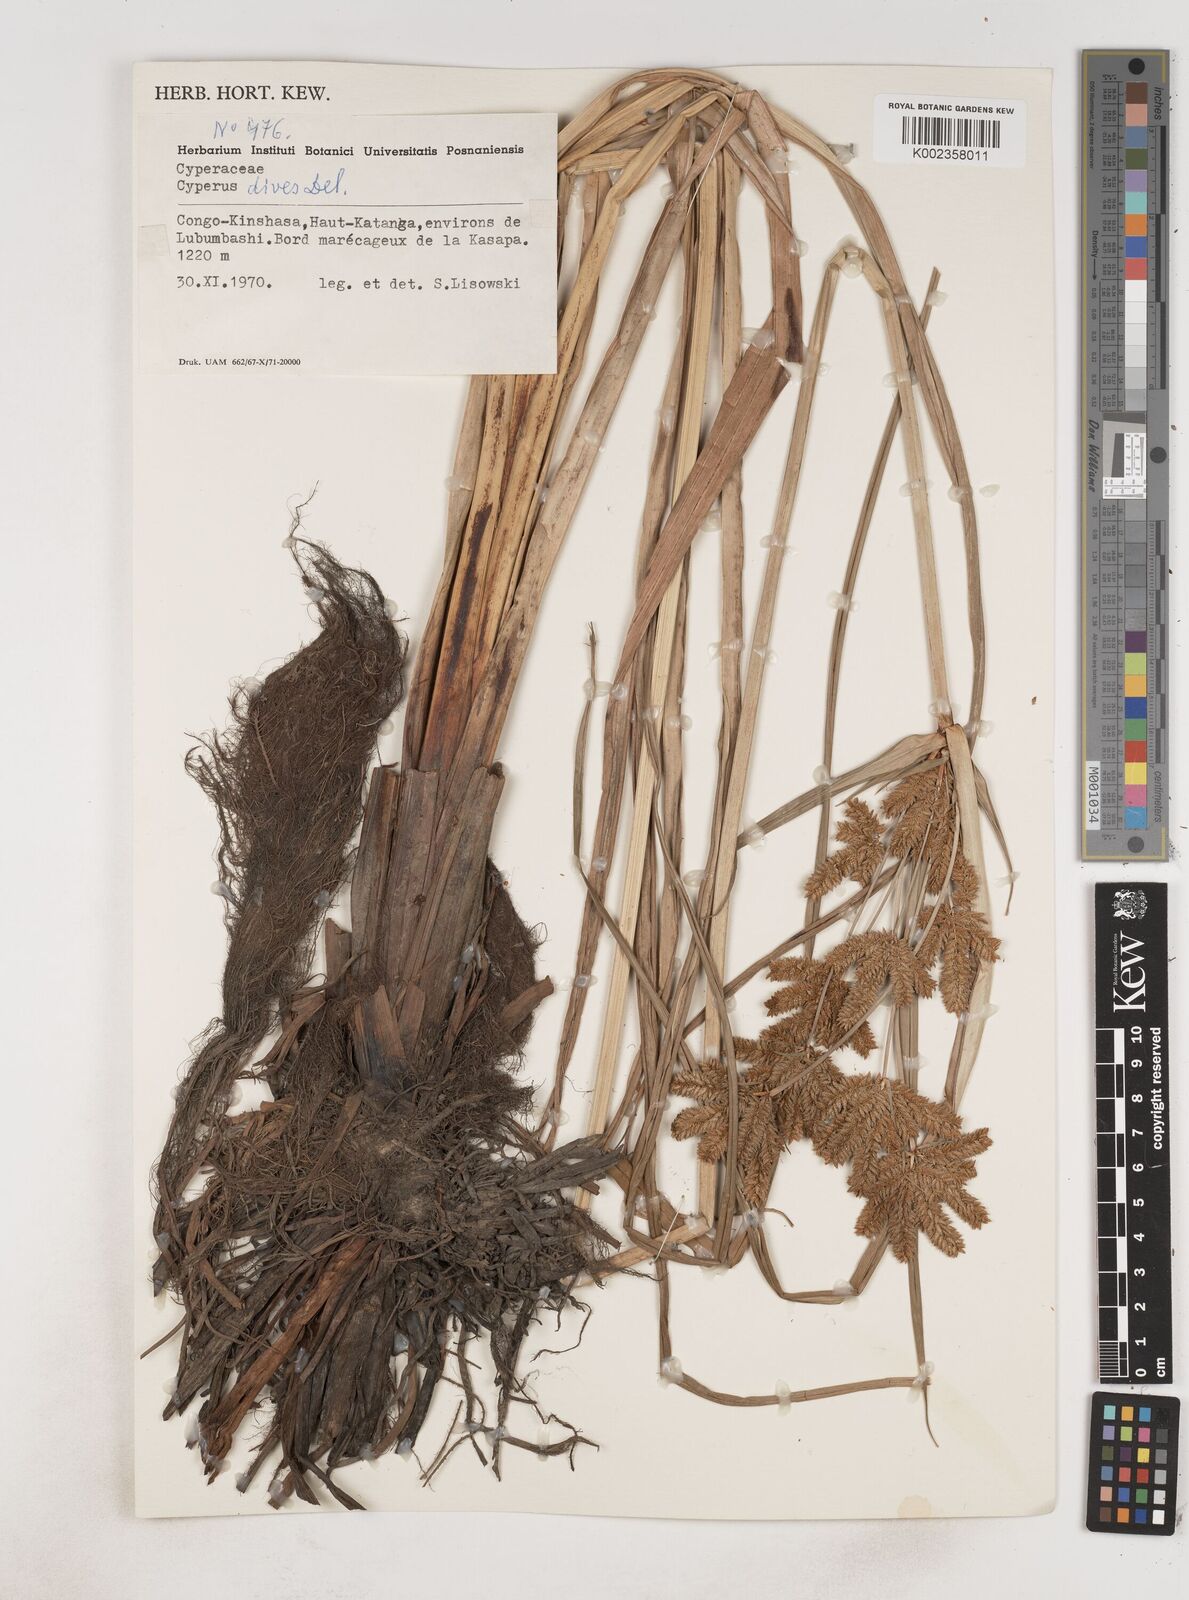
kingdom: Plantae
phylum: Tracheophyta
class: Liliopsida
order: Poales
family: Cyperaceae
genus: Cyperus
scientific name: Cyperus dives
